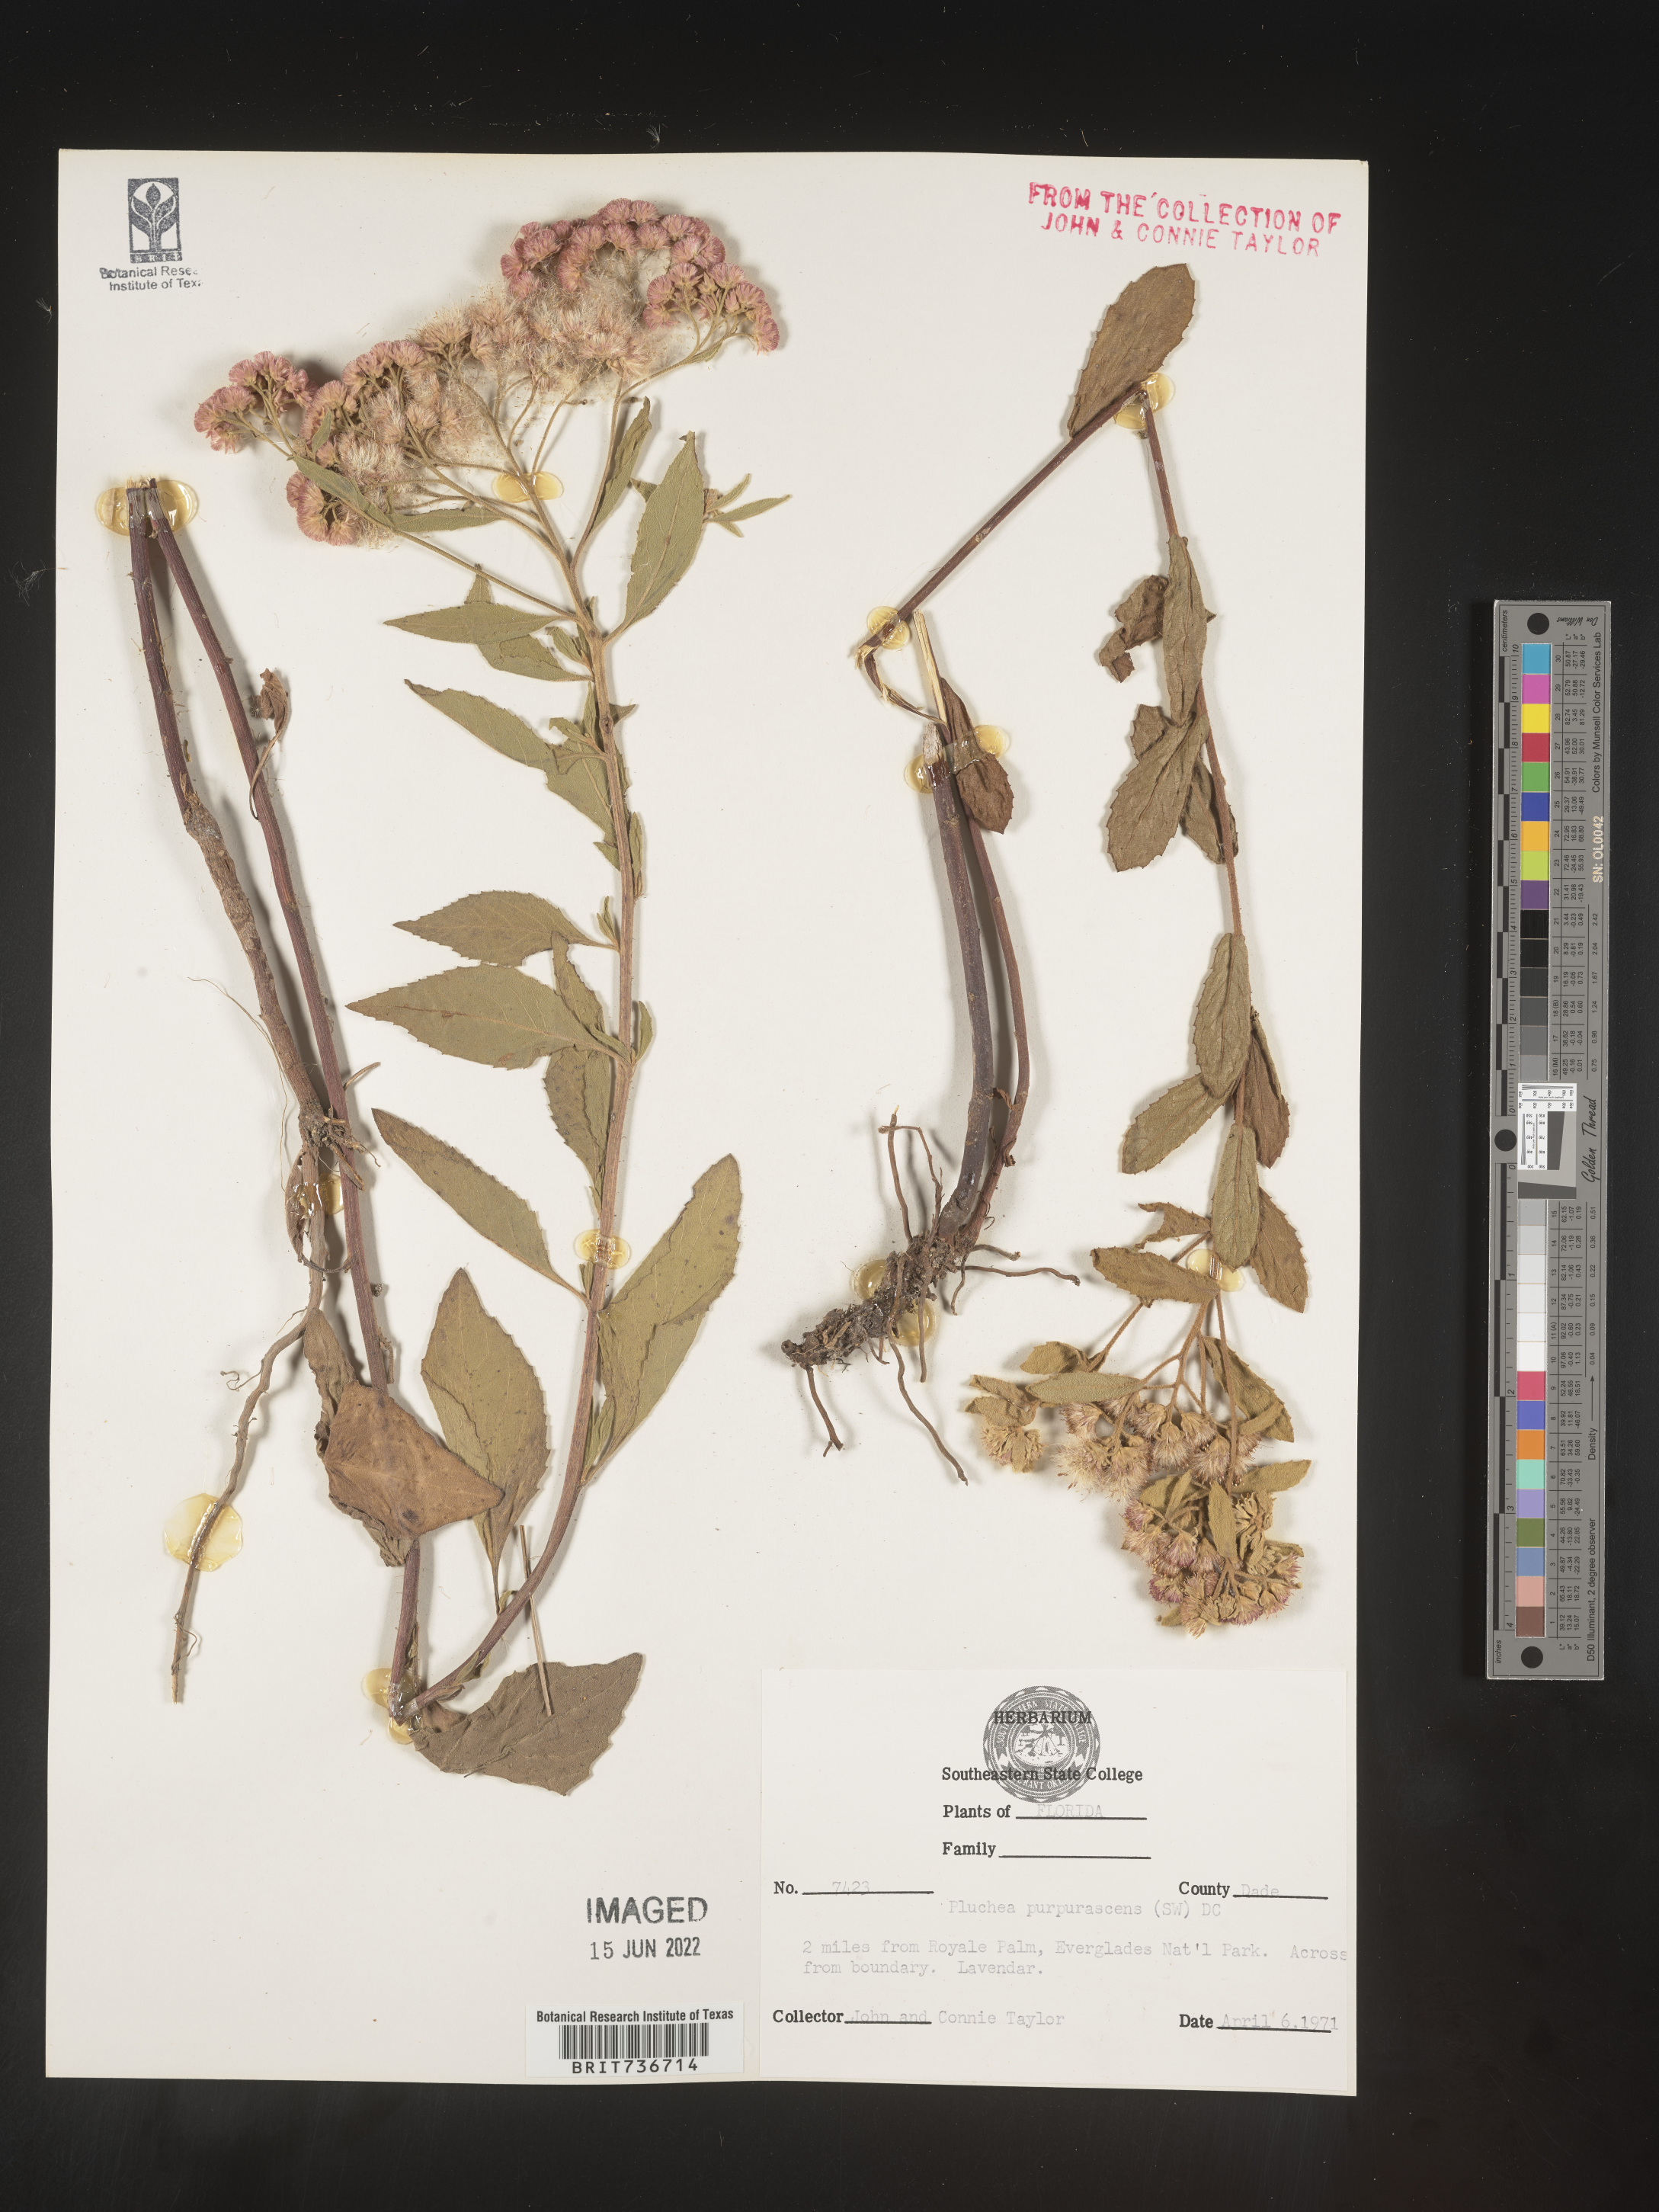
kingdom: Plantae
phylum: Tracheophyta
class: Magnoliopsida
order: Asterales
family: Asteraceae
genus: Pluchea
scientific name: Pluchea odorata
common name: Saltmarsh fleabane
